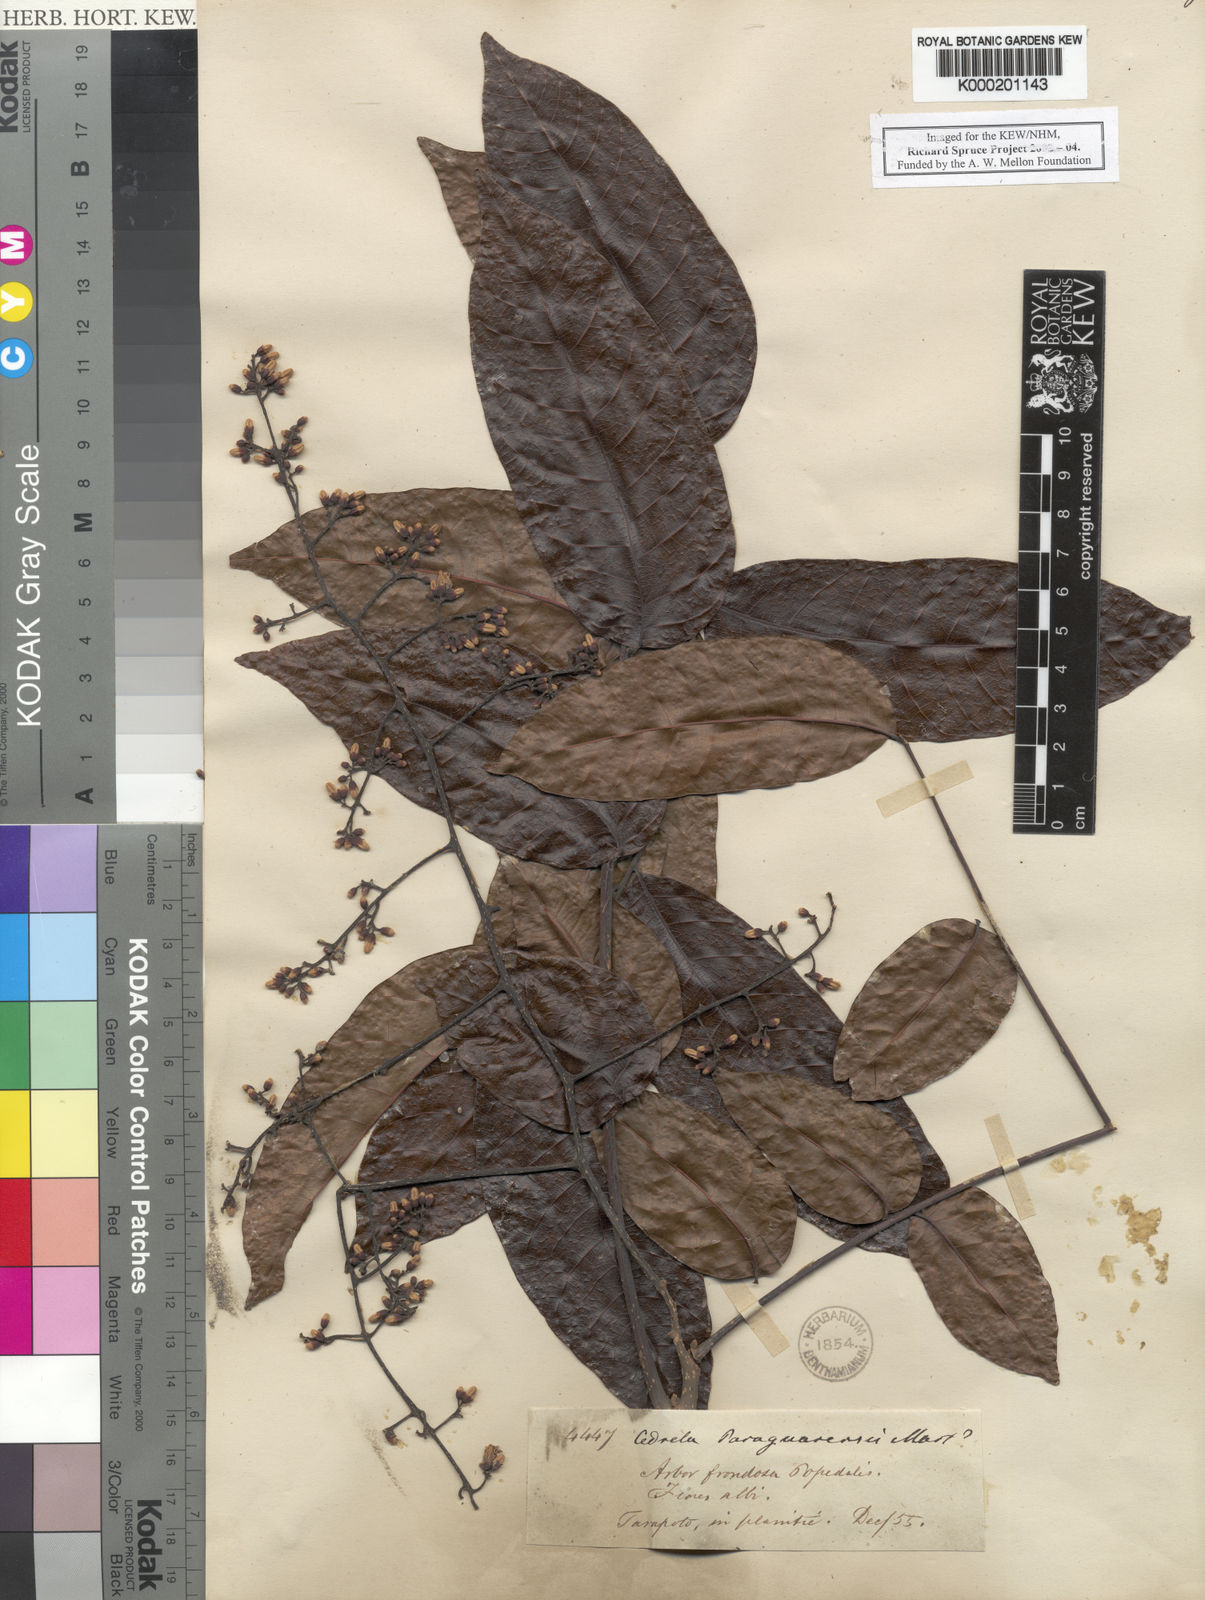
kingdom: Plantae
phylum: Tracheophyta
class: Magnoliopsida
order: Sapindales
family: Meliaceae
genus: Cedrela
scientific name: Cedrela odorata
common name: Red cedar
